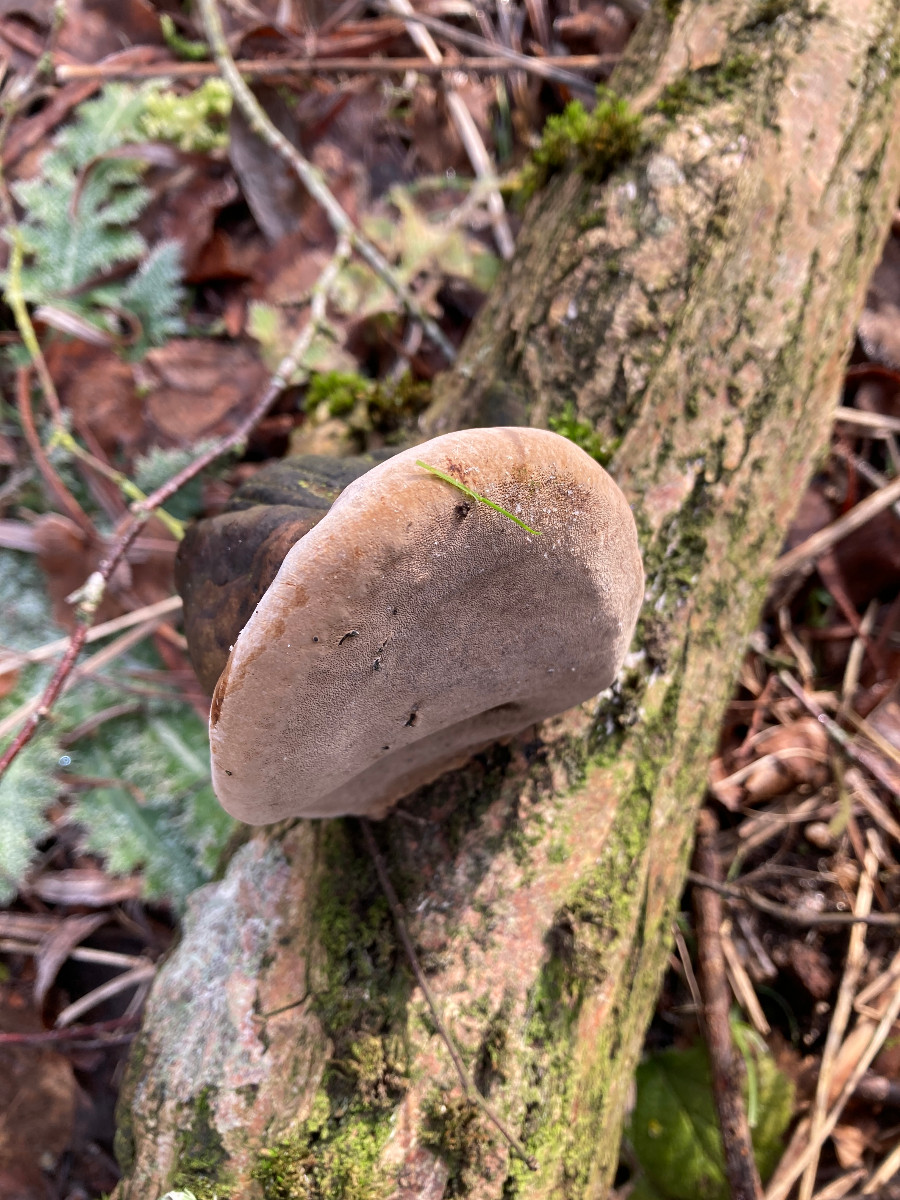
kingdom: Fungi
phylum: Basidiomycota
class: Agaricomycetes
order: Hymenochaetales
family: Hymenochaetaceae
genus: Phellinus
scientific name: Phellinus igniarius
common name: almindelig ildporesvamp
